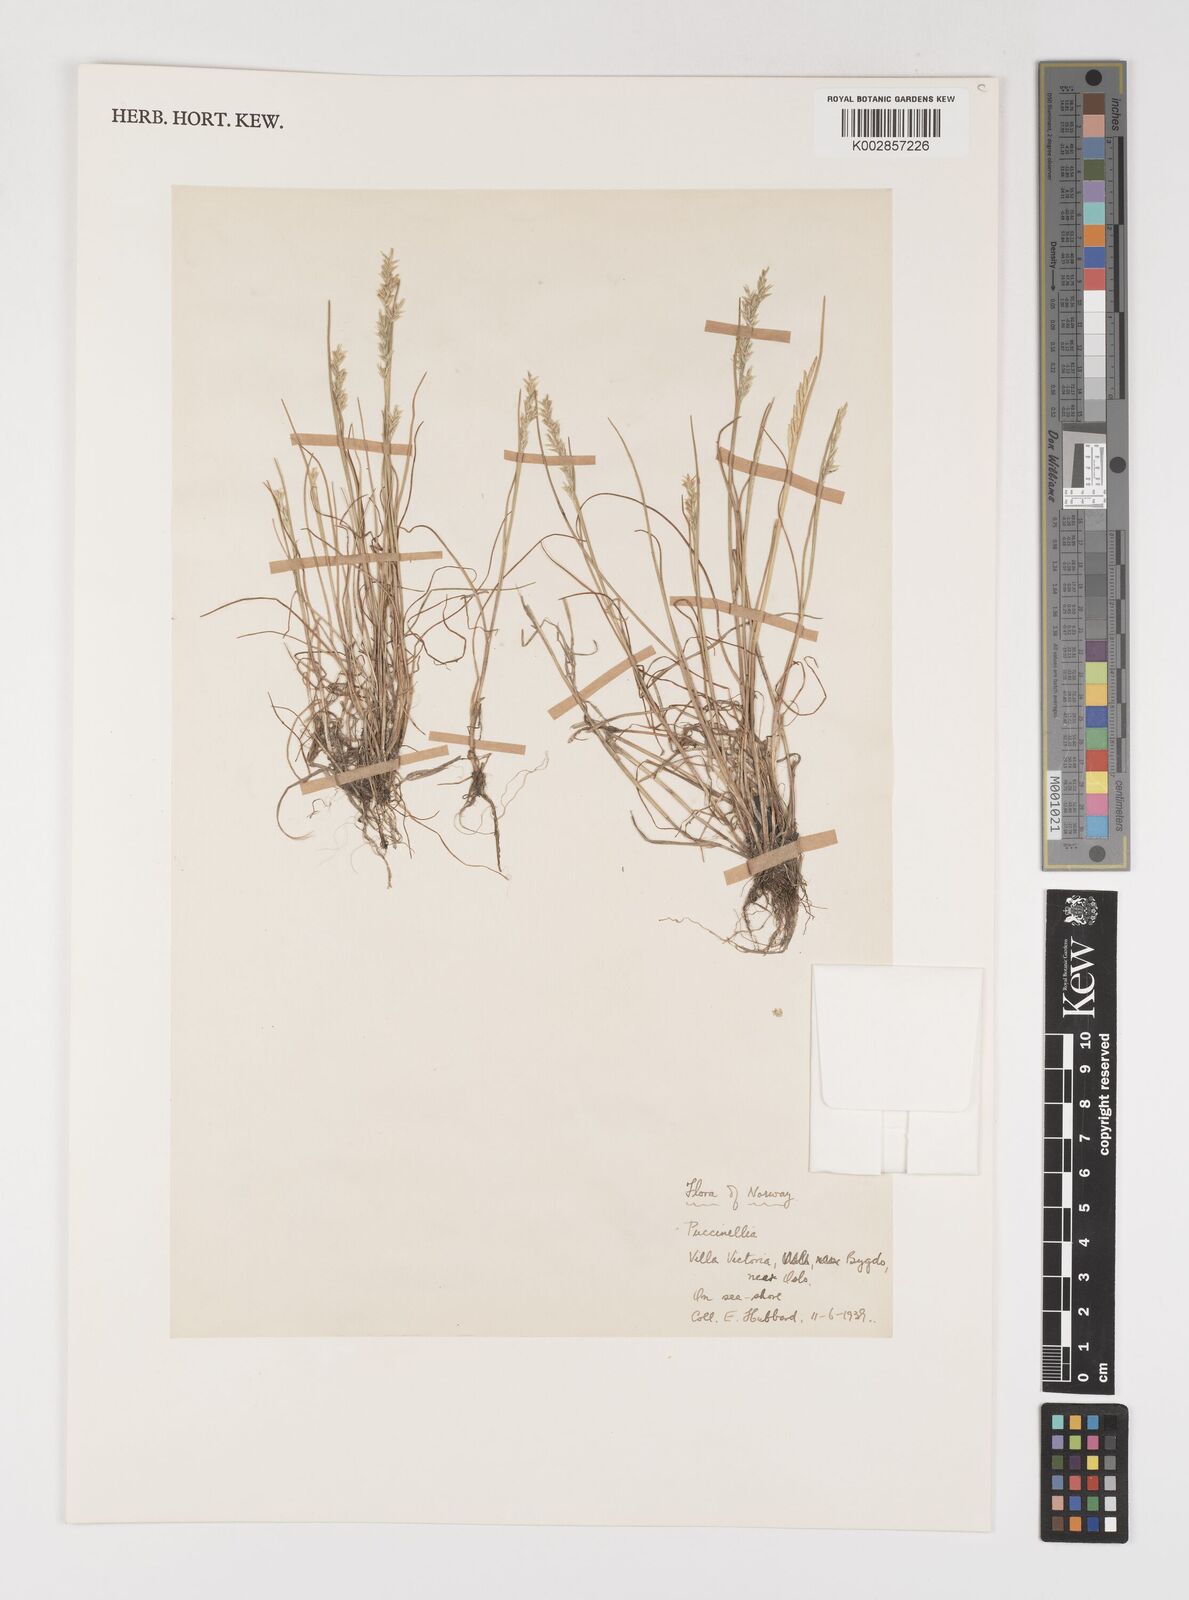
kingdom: Plantae
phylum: Tracheophyta
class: Liliopsida
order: Poales
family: Poaceae
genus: Puccinellia
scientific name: Puccinellia
